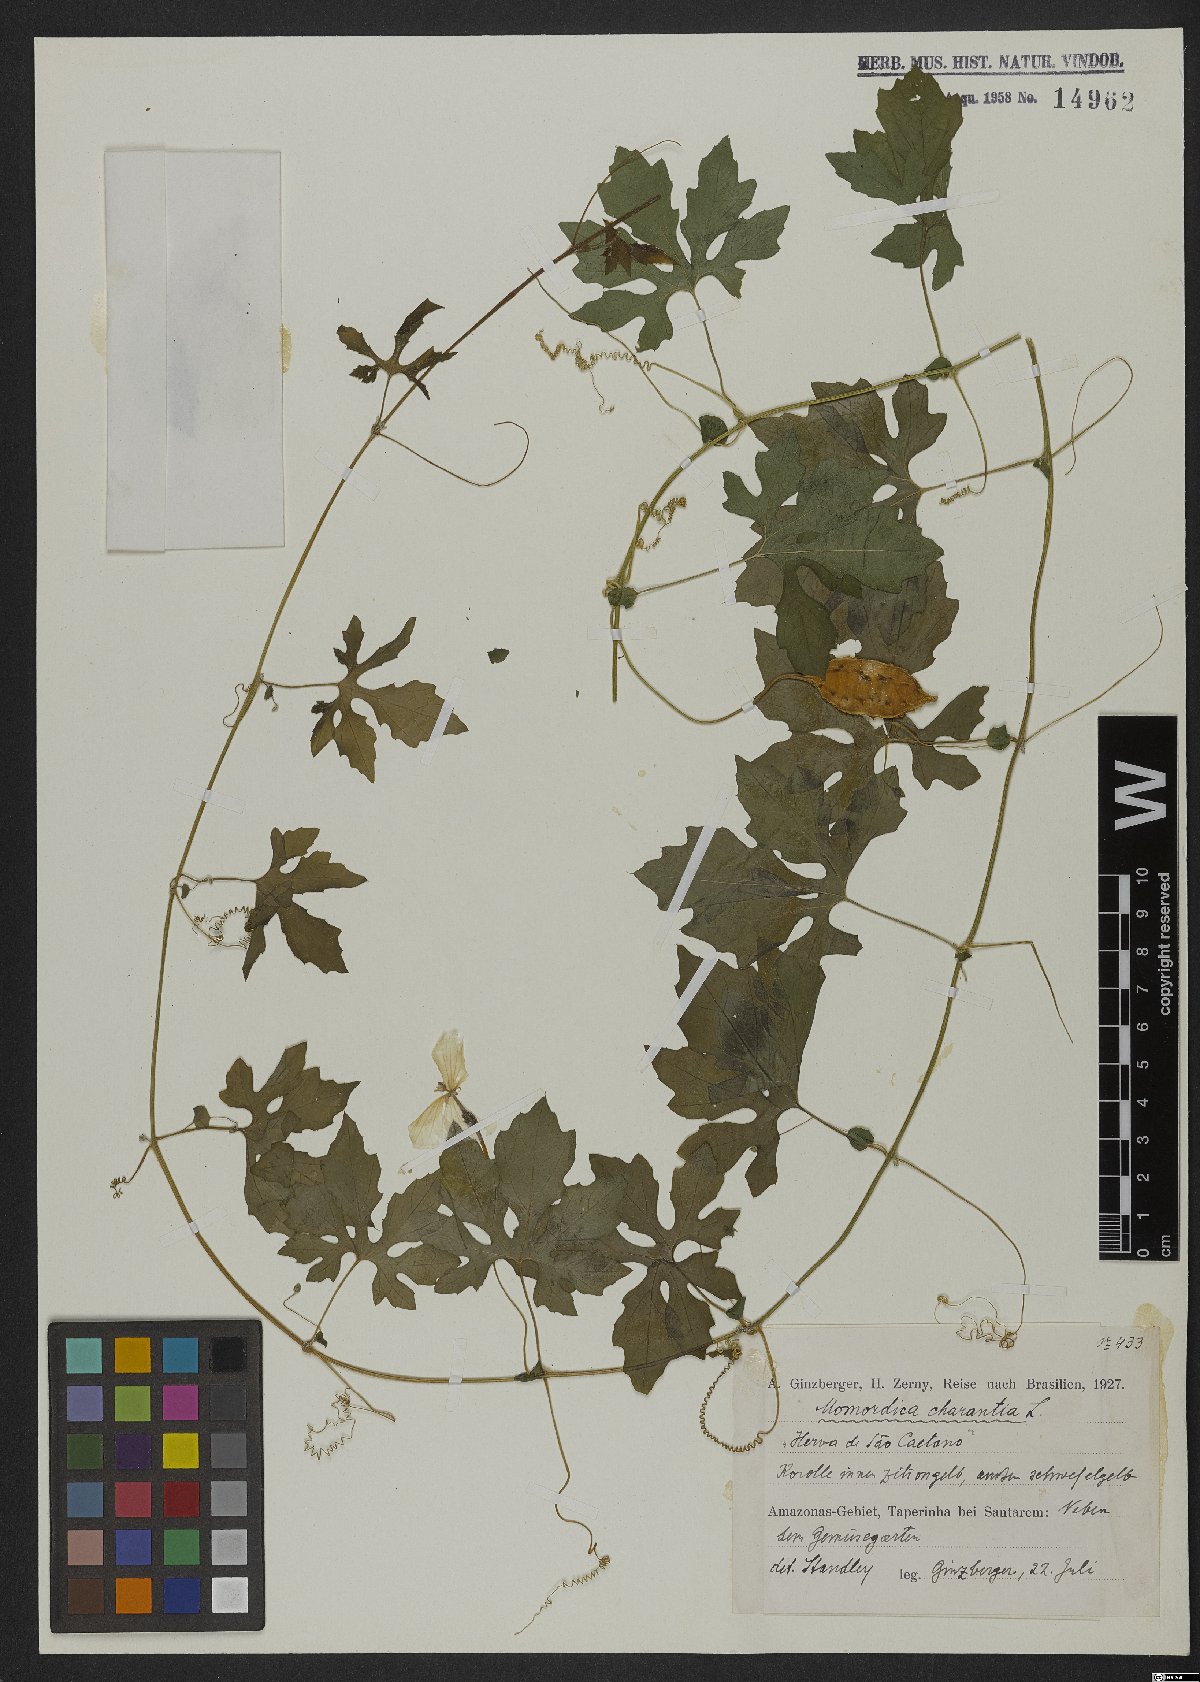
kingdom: Plantae
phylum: Tracheophyta
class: Magnoliopsida
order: Cucurbitales
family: Cucurbitaceae
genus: Momordica
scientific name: Momordica charantia
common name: Balsampear
